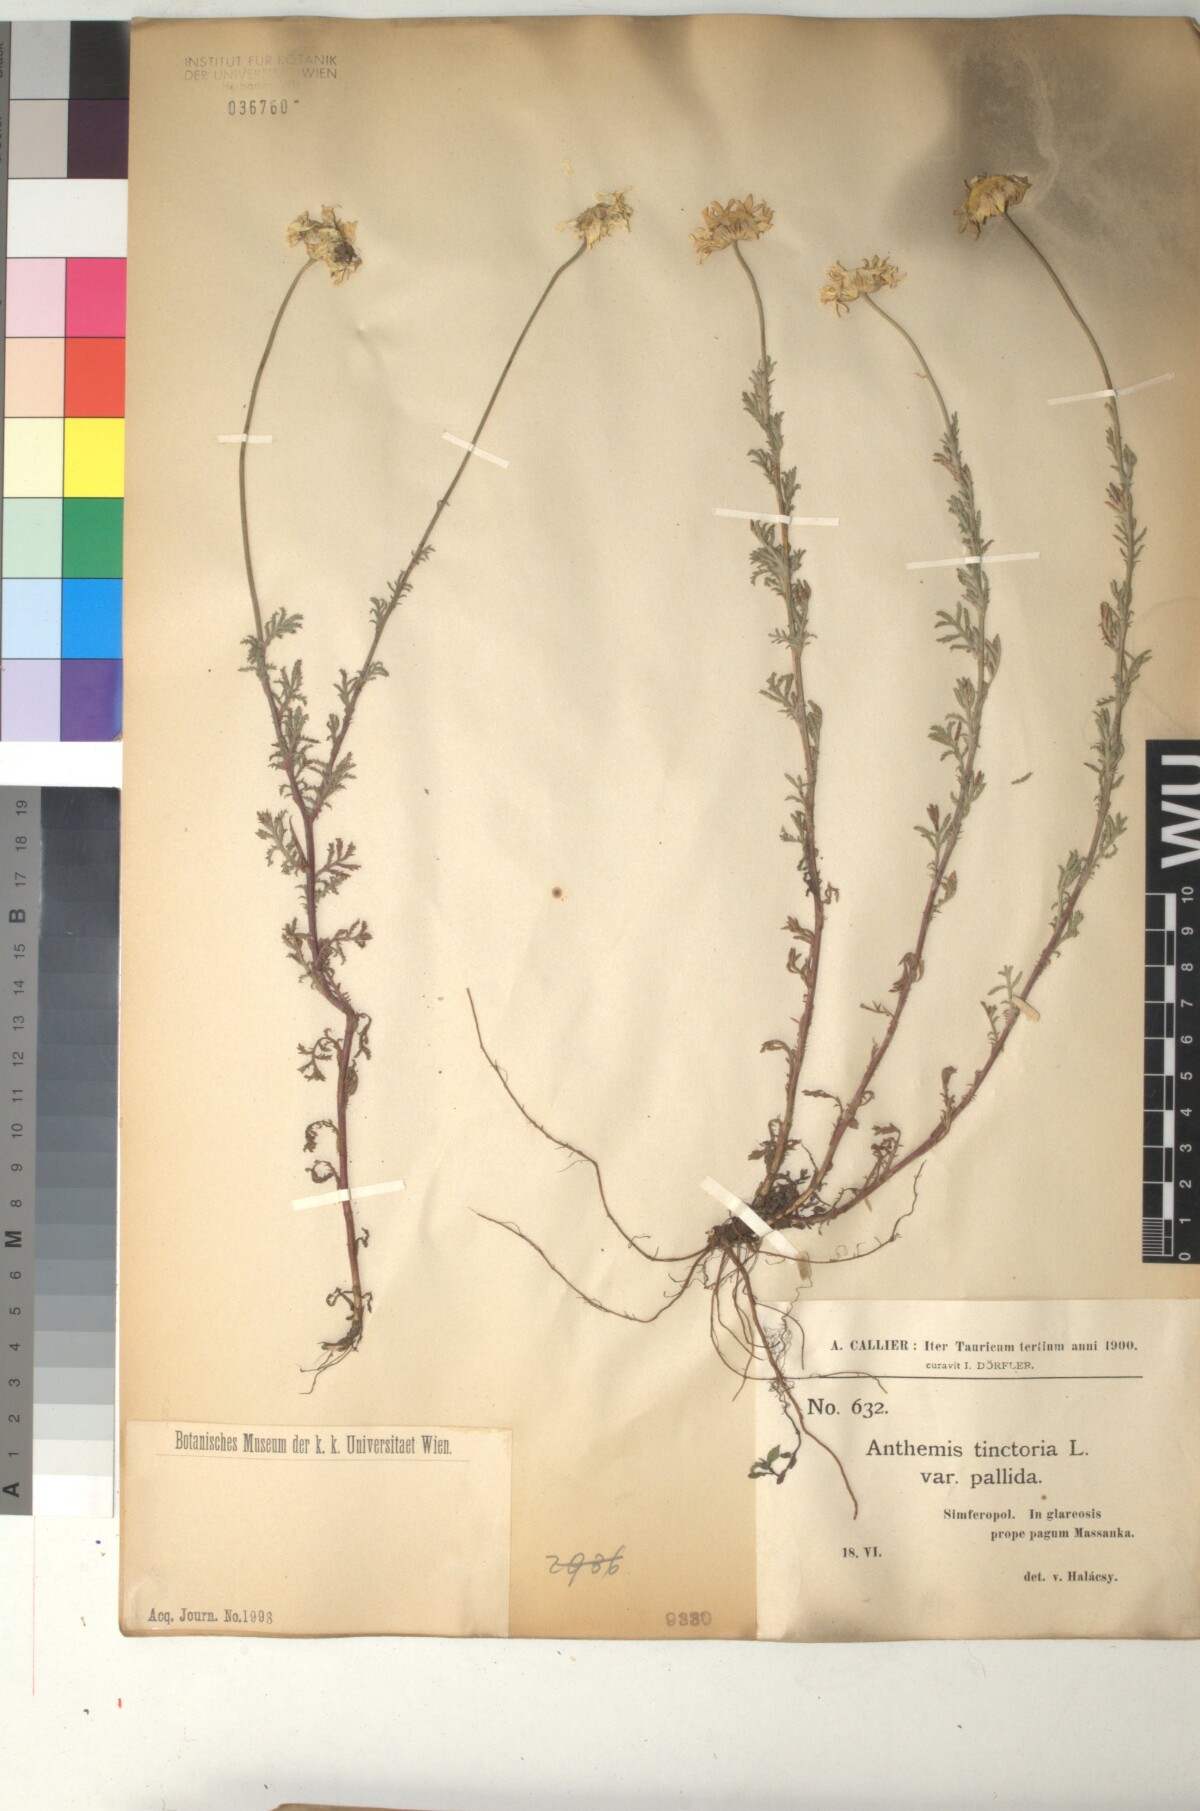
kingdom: Plantae
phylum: Tracheophyta
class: Magnoliopsida
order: Asterales
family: Asteraceae
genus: Cota
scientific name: Cota tinctoria
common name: Golden chamomile
